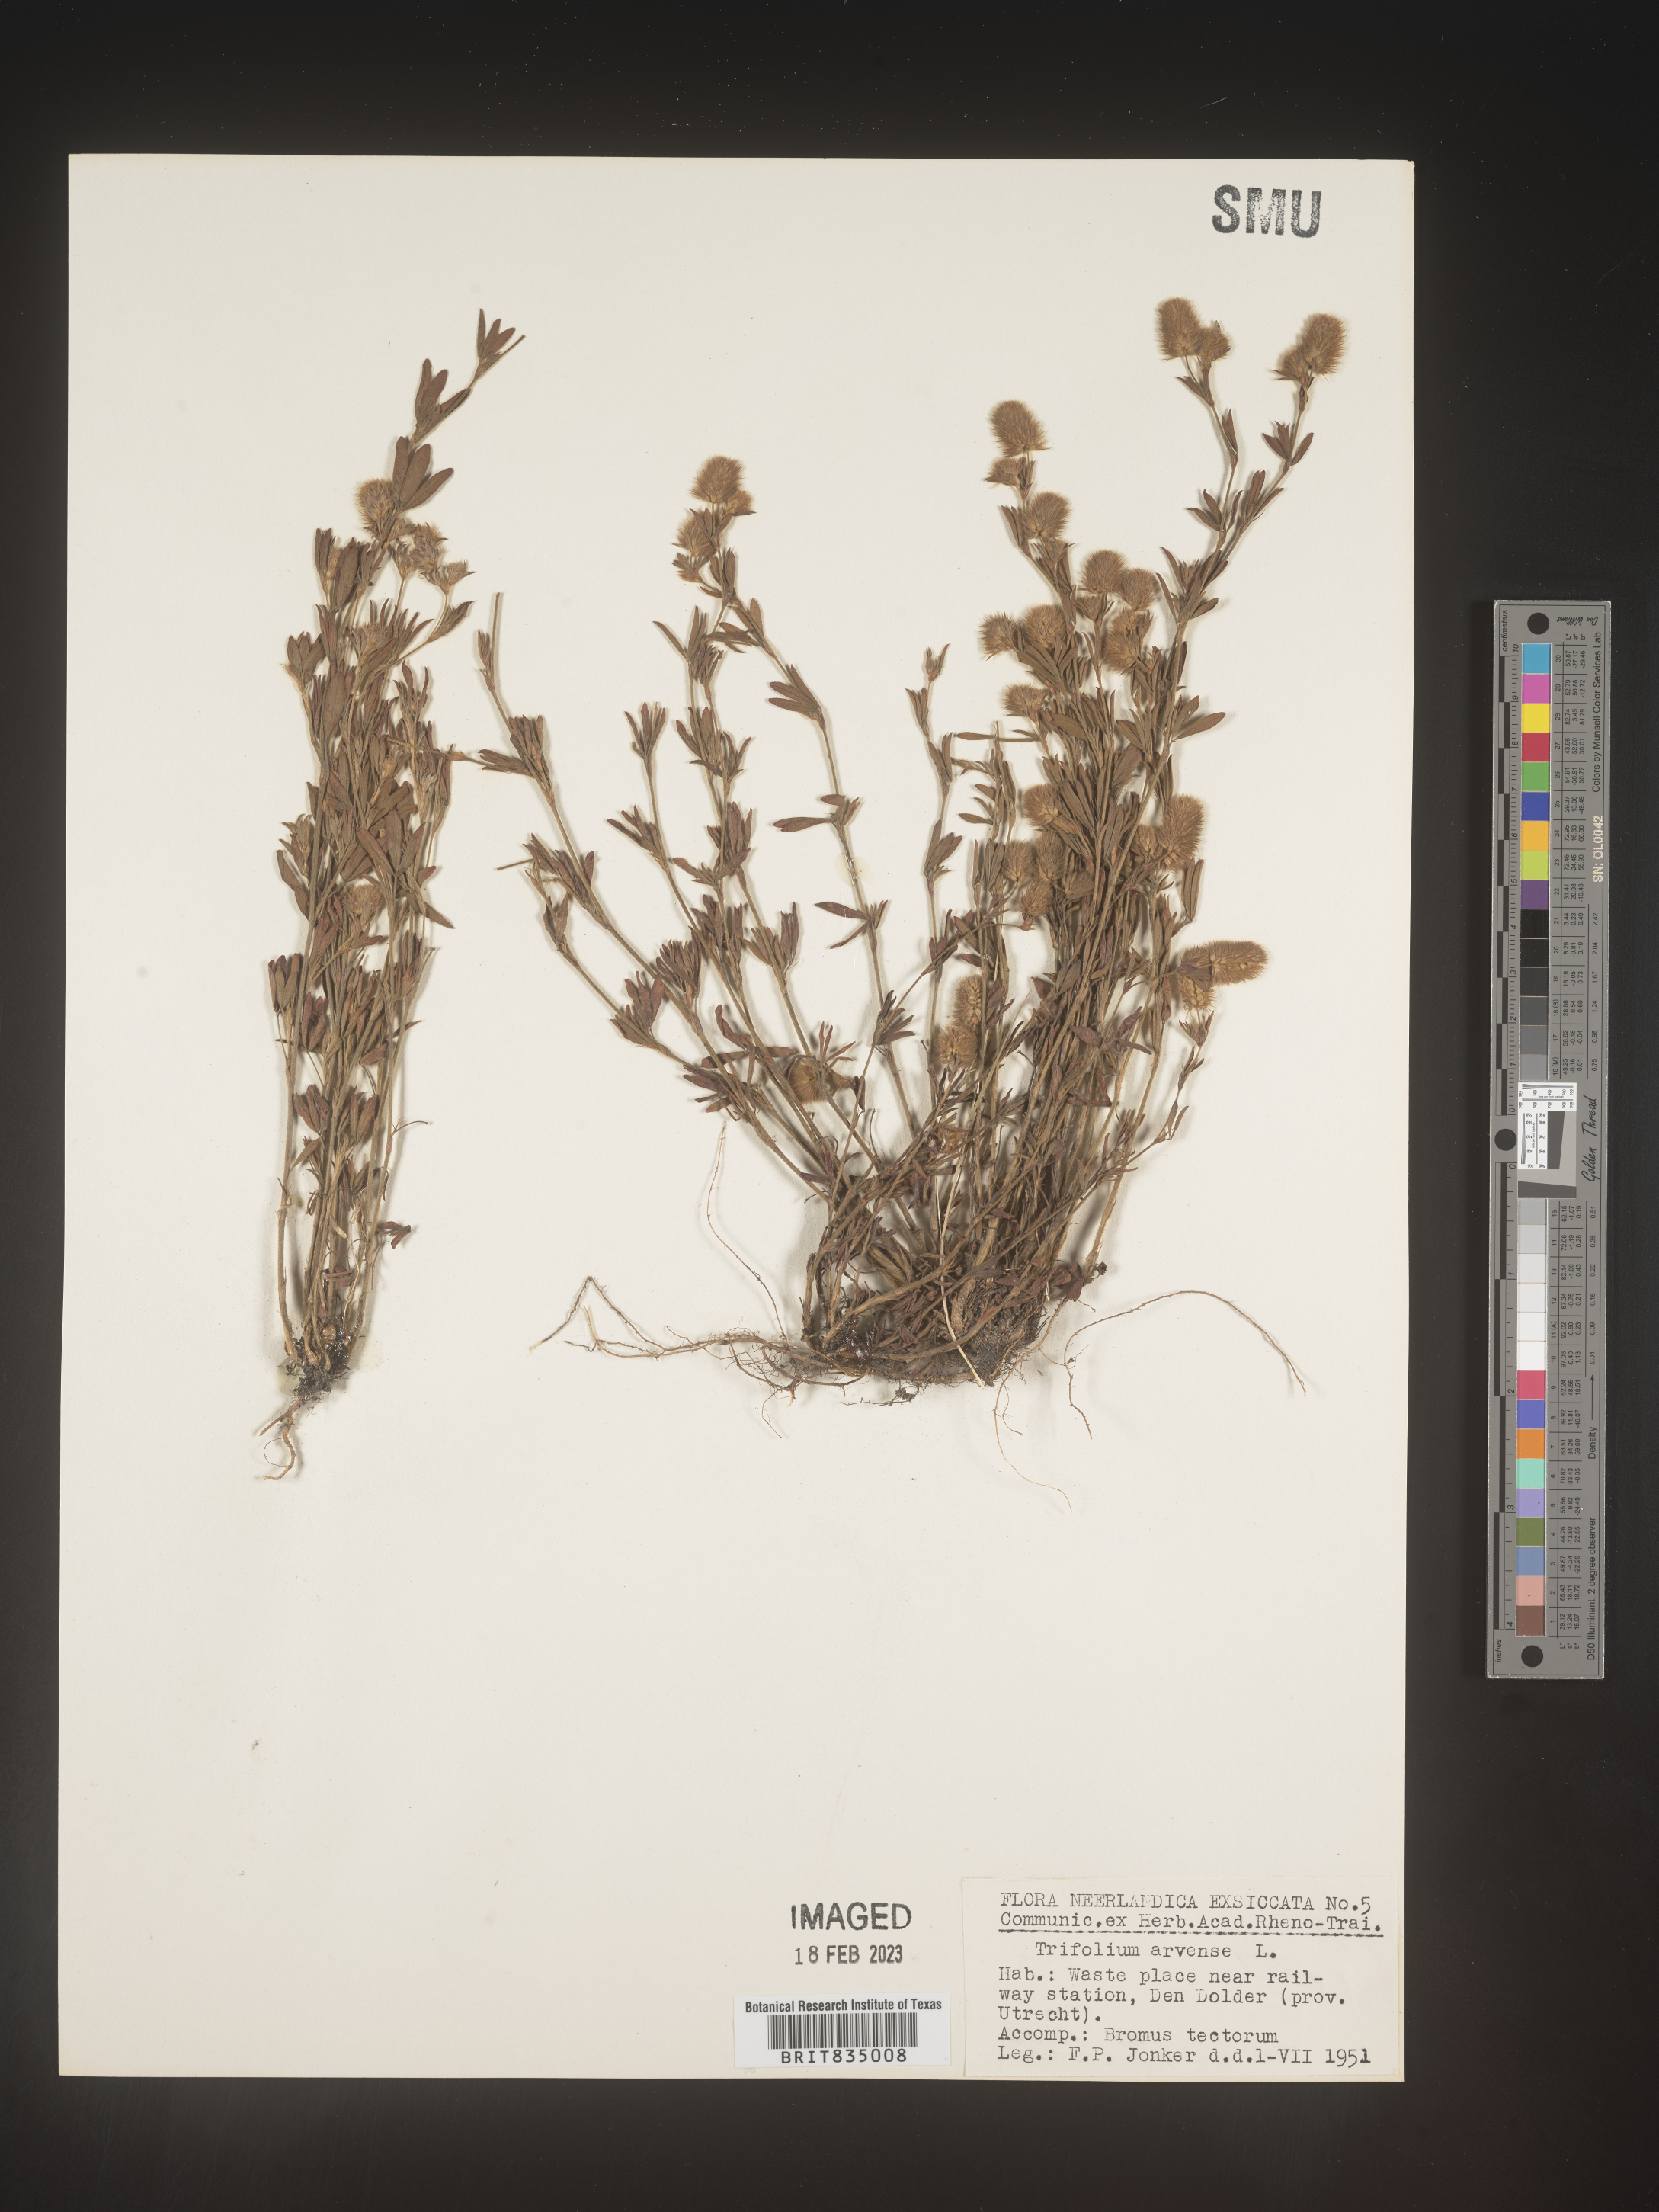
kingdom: Plantae
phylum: Tracheophyta
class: Magnoliopsida
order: Fabales
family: Fabaceae
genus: Trifolium
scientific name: Trifolium
